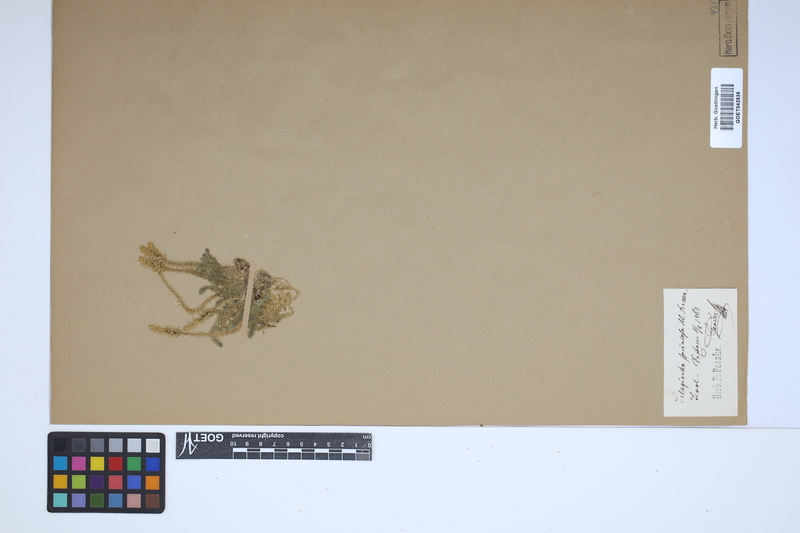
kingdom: Plantae
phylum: Tracheophyta
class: Lycopodiopsida
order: Selaginellales
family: Selaginellaceae
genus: Selaginella
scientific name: Selaginella selaginoides
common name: Prickly mountain-moss
